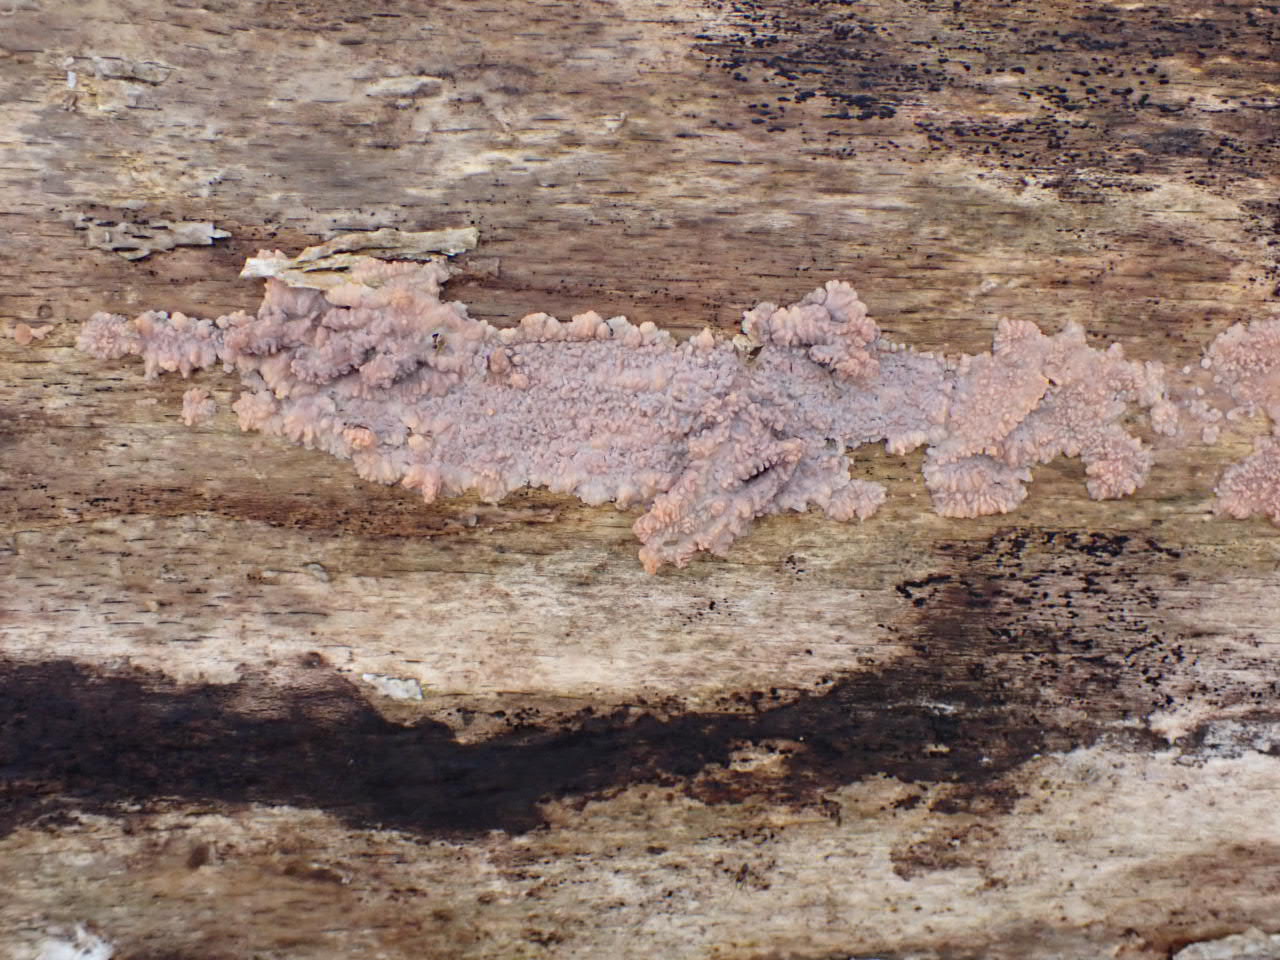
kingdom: Fungi
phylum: Basidiomycota
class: Agaricomycetes
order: Polyporales
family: Meruliaceae
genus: Phlebia
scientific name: Phlebia radiata
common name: stråle-åresvamp
